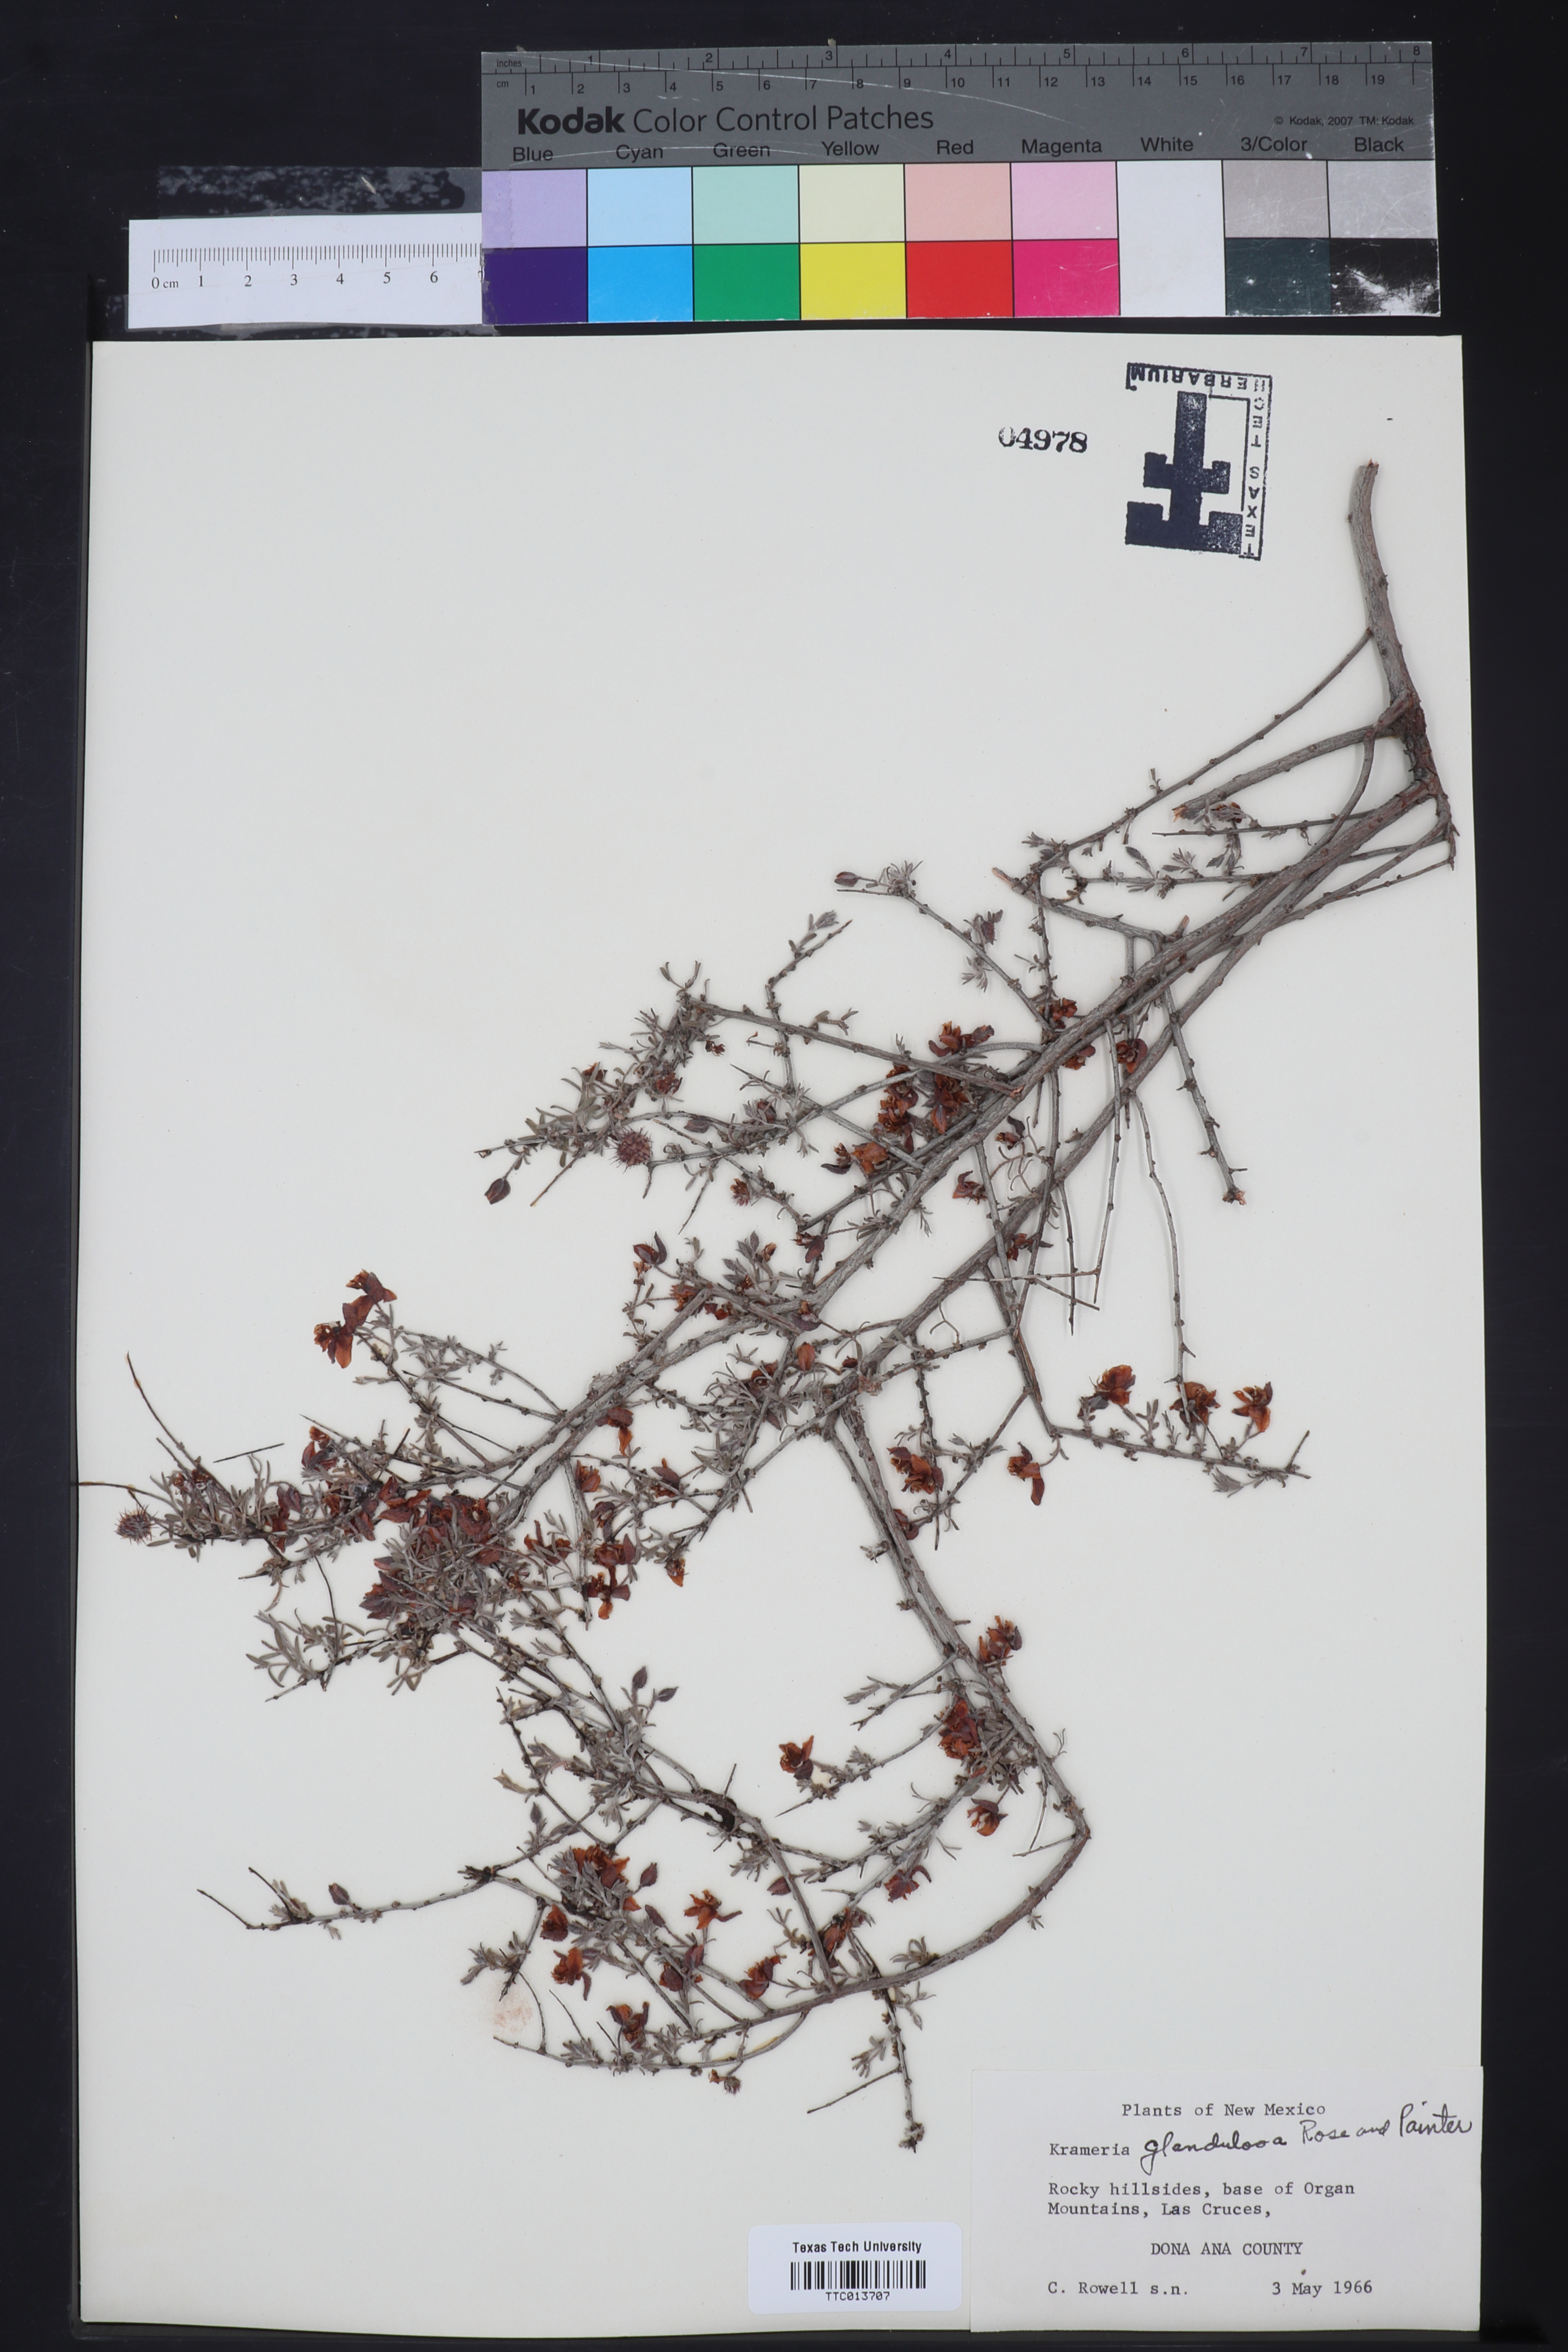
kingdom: Plantae
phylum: Tracheophyta
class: Magnoliopsida
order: Zygophyllales
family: Krameriaceae
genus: Krameria
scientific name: Krameria erecta
